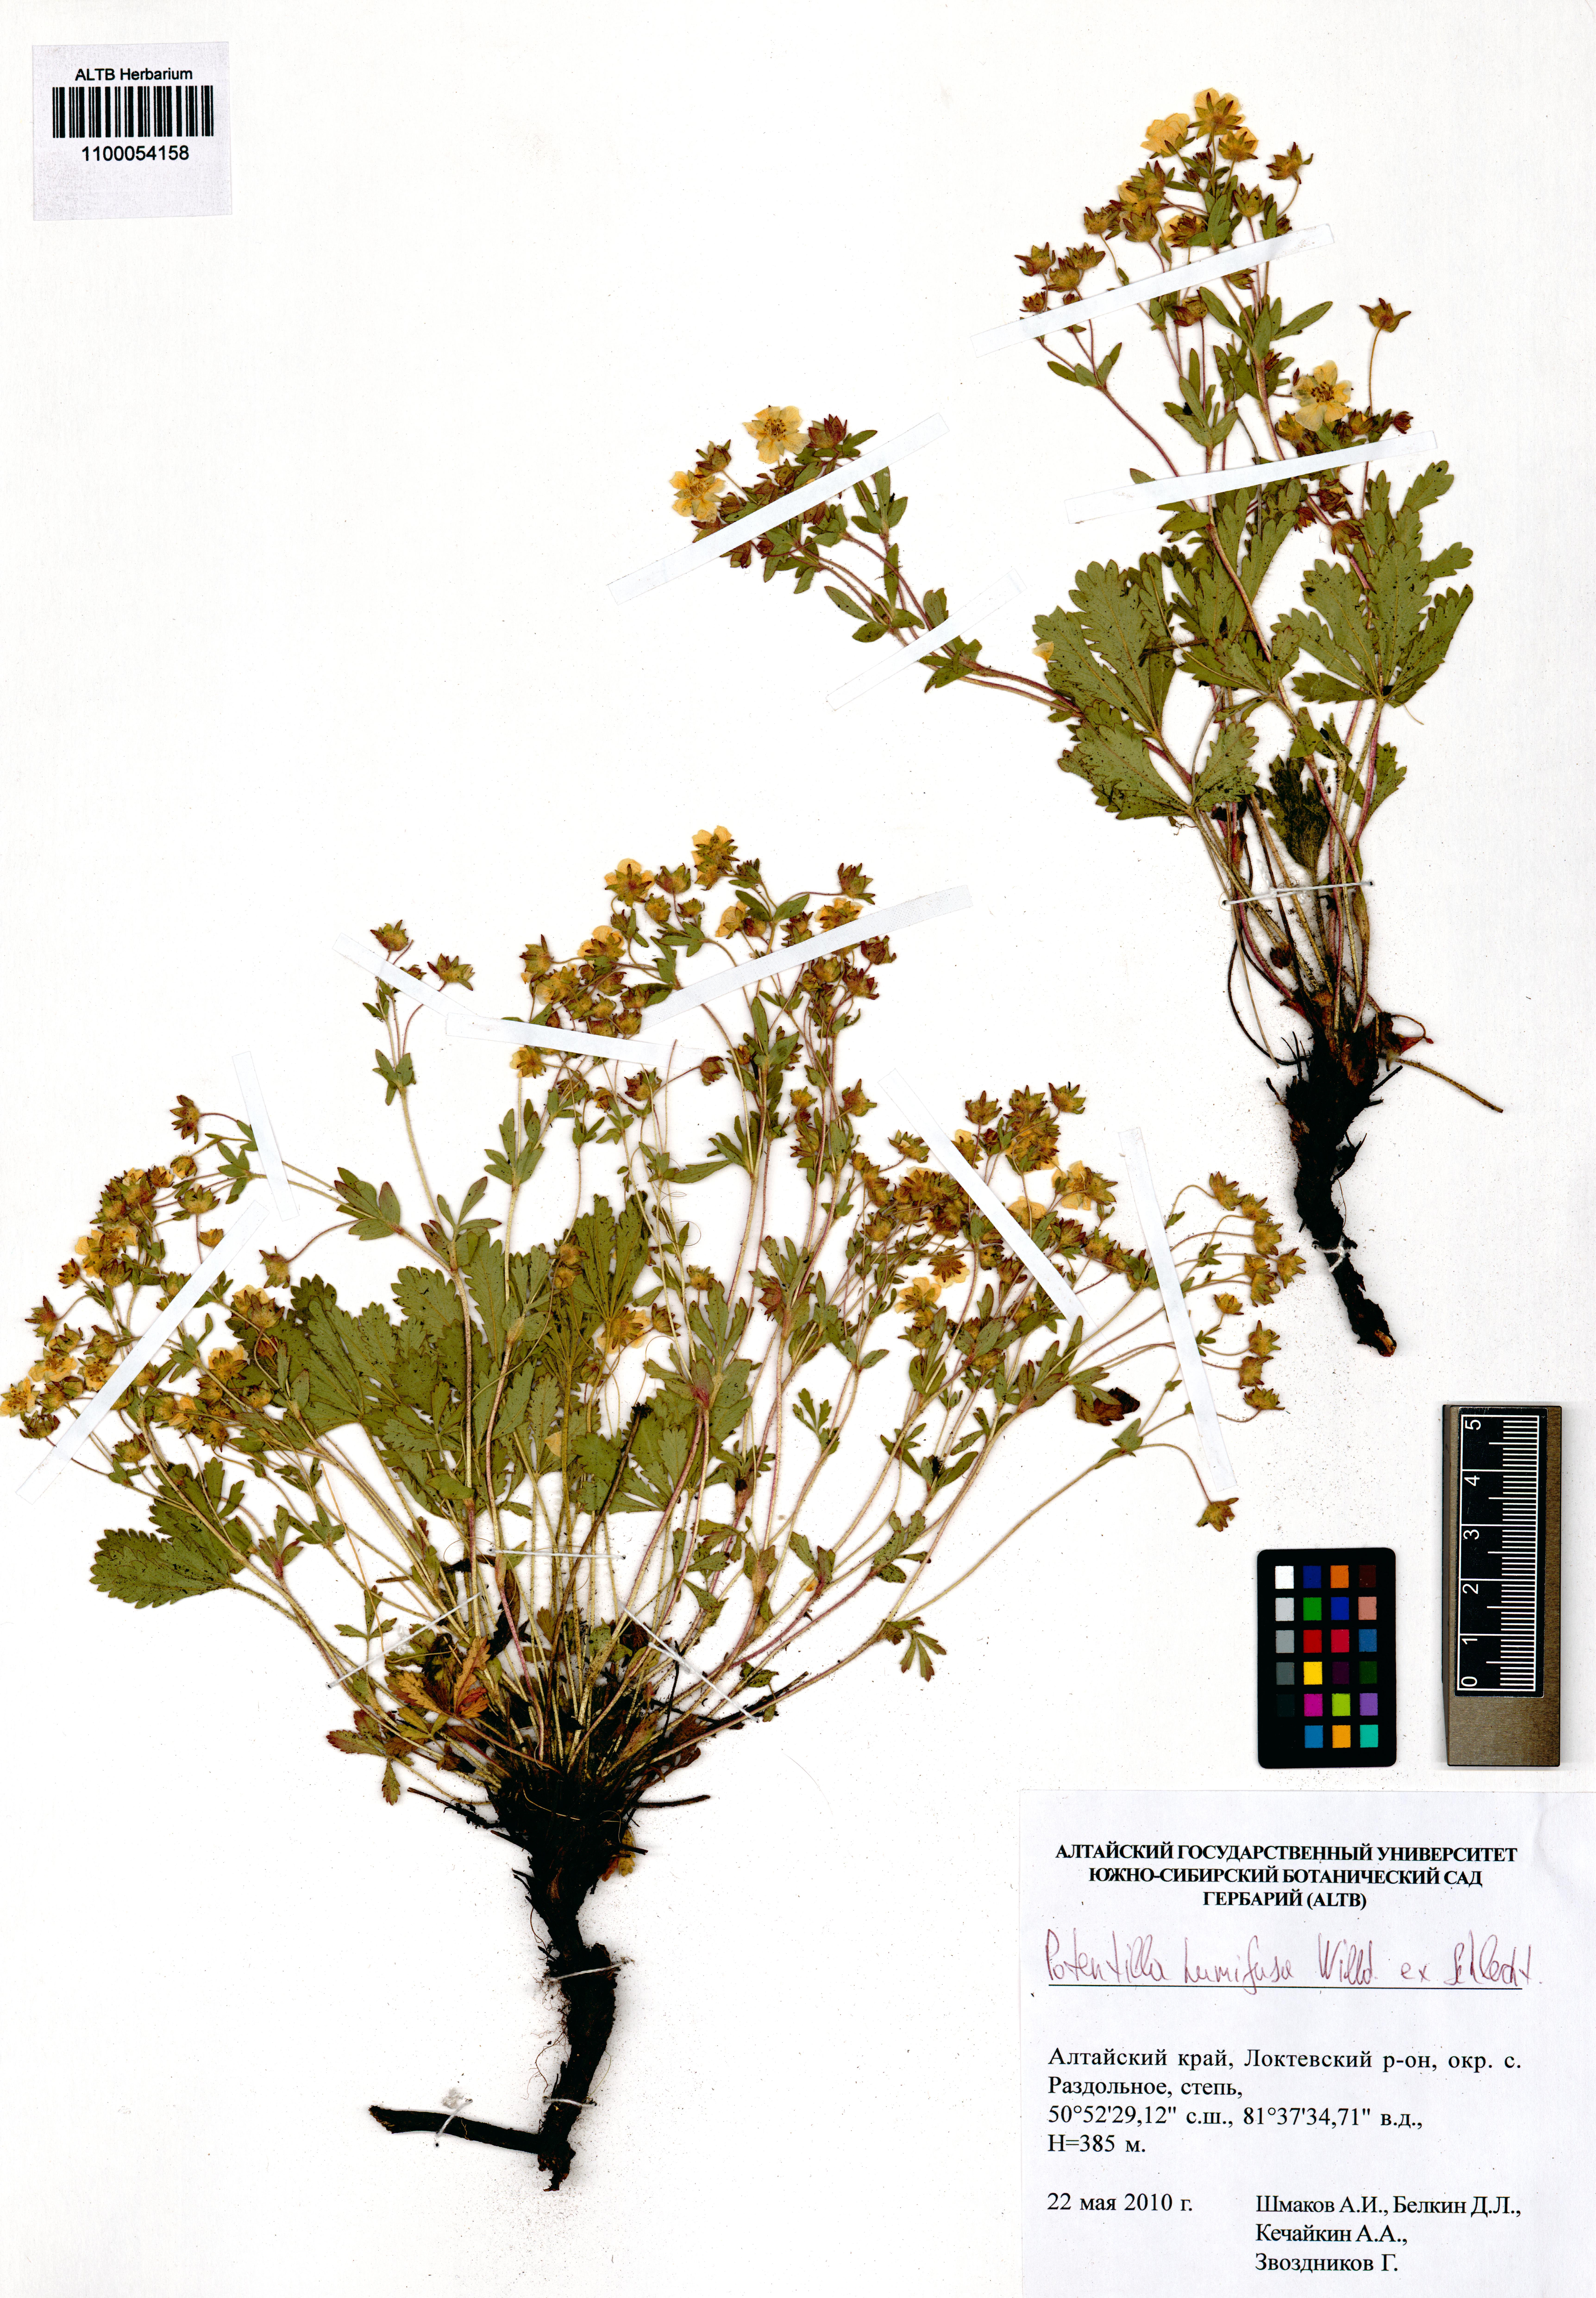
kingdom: Plantae
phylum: Tracheophyta
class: Magnoliopsida
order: Rosales
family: Rosaceae
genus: Potentilla
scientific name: Potentilla humifusa
